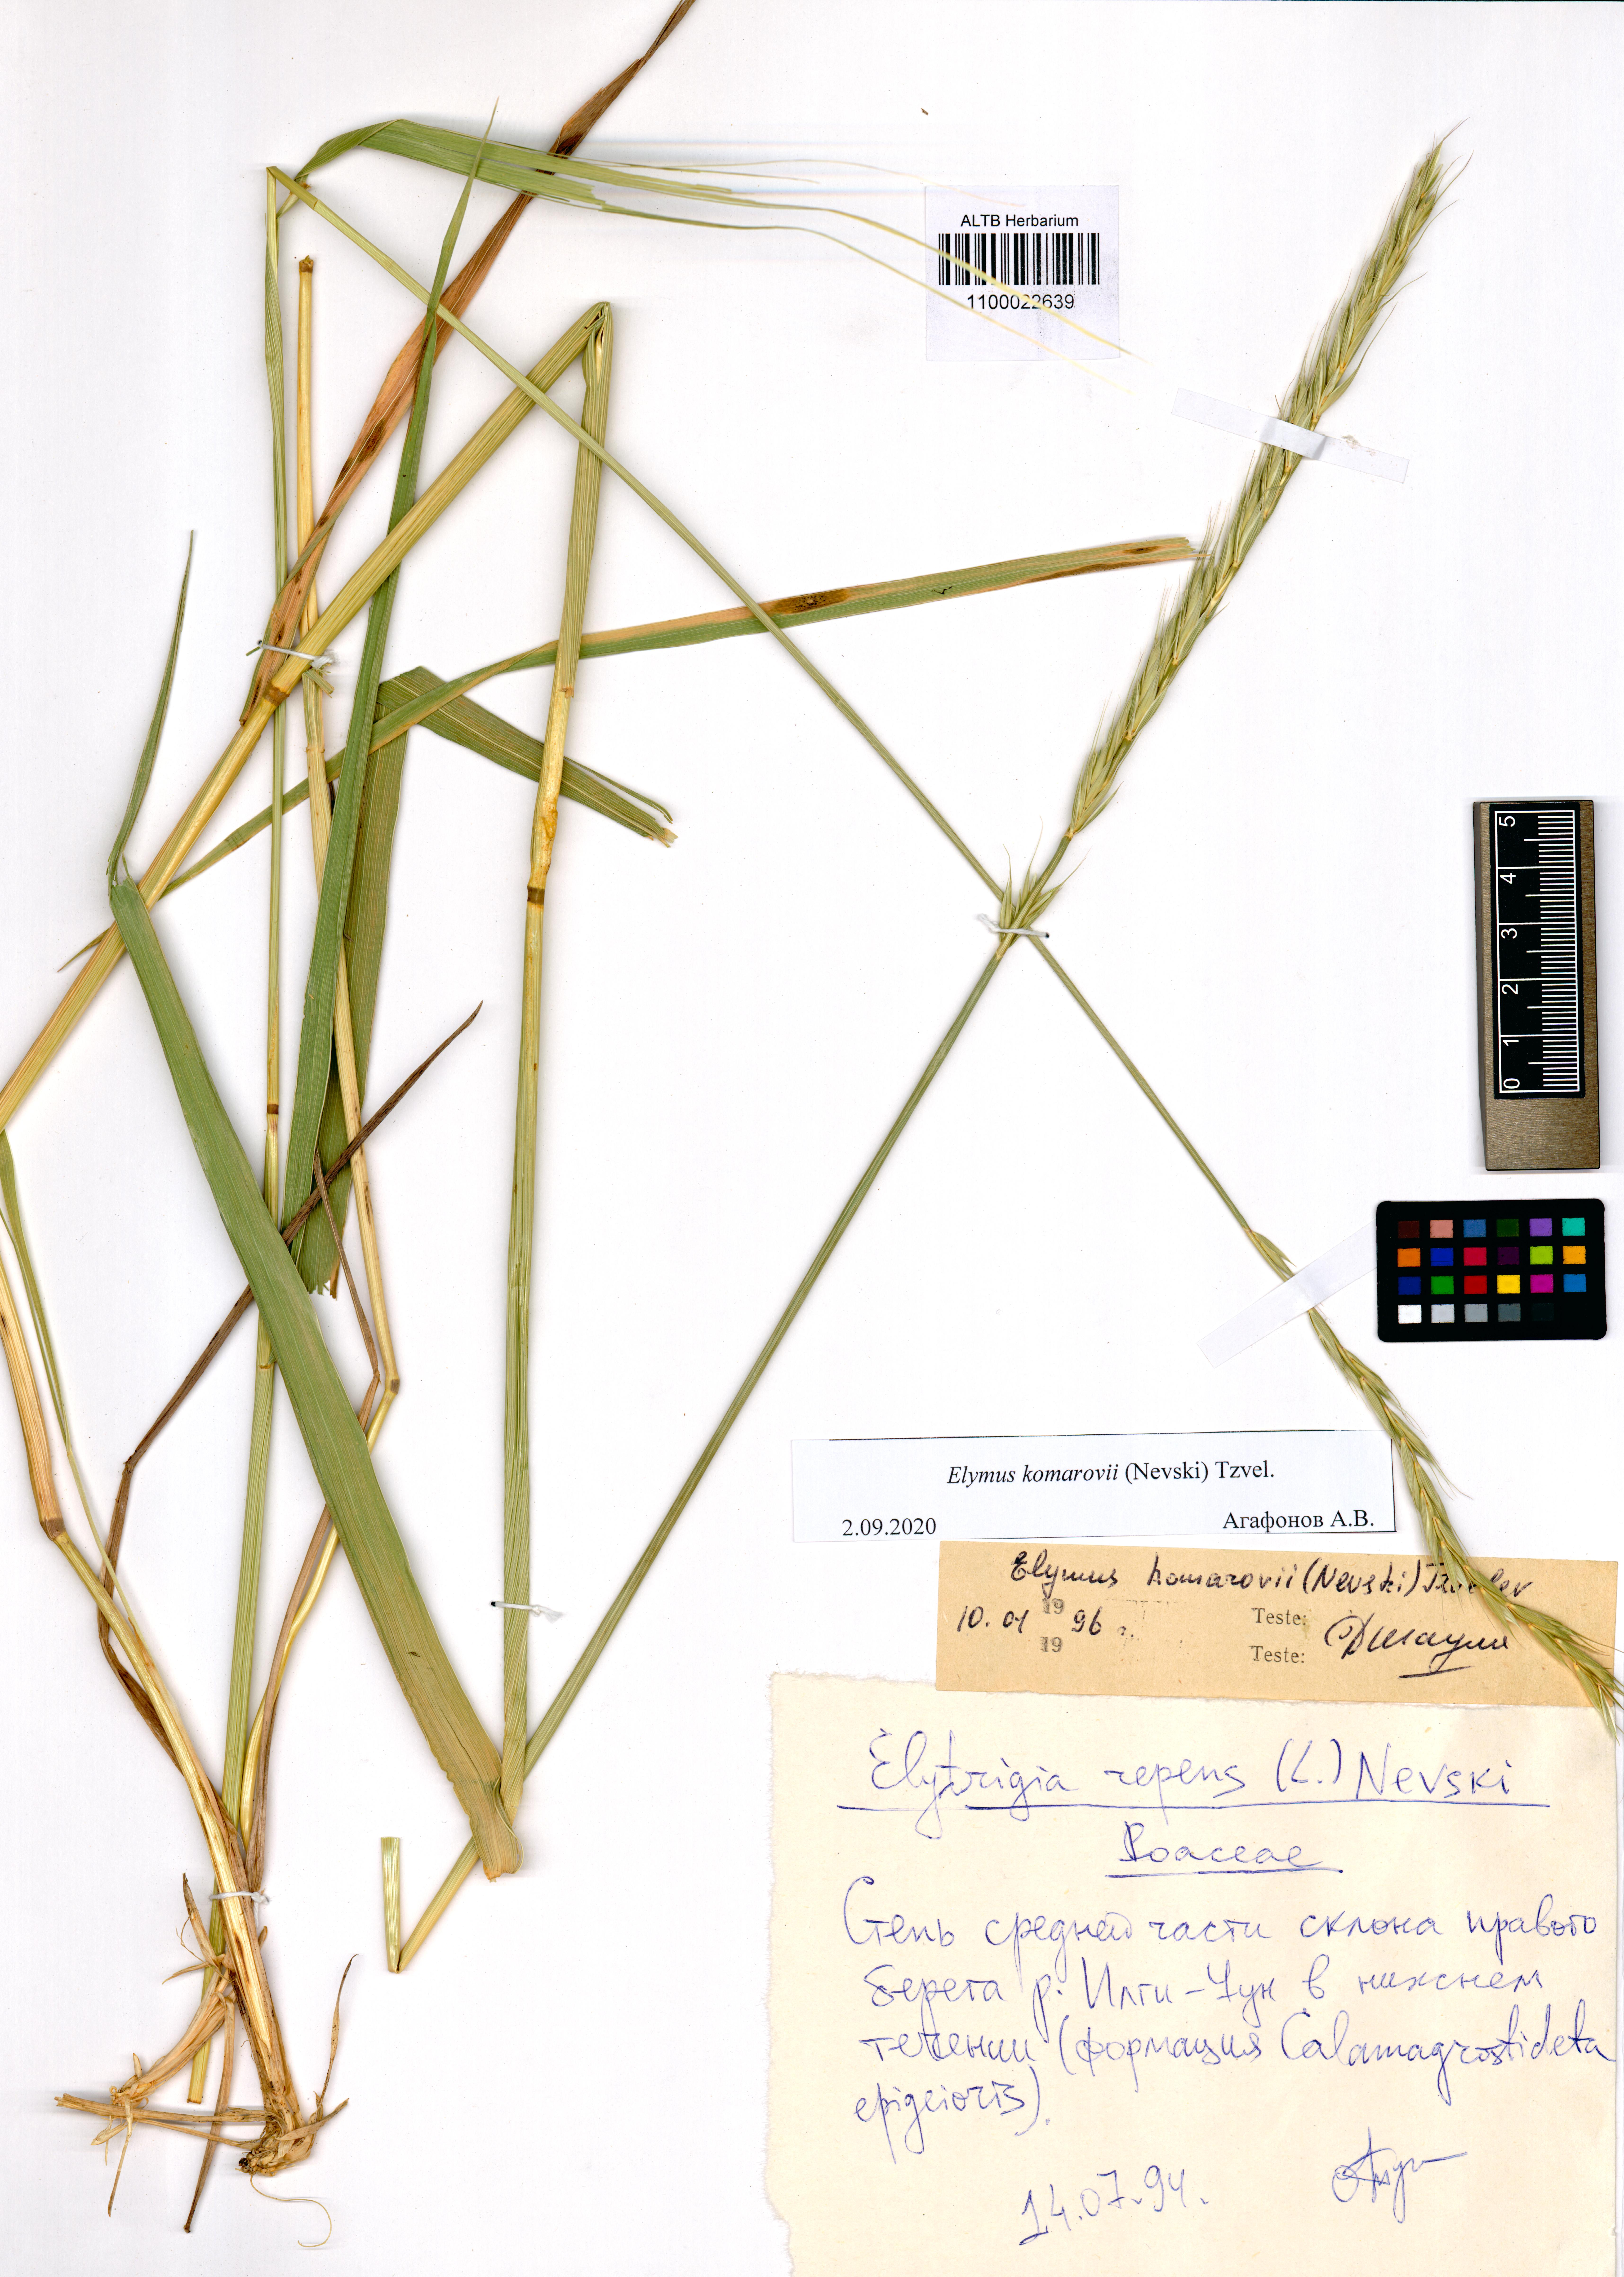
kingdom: Plantae
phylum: Tracheophyta
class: Liliopsida
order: Poales
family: Poaceae
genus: Elymus
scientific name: Elymus uralensis
